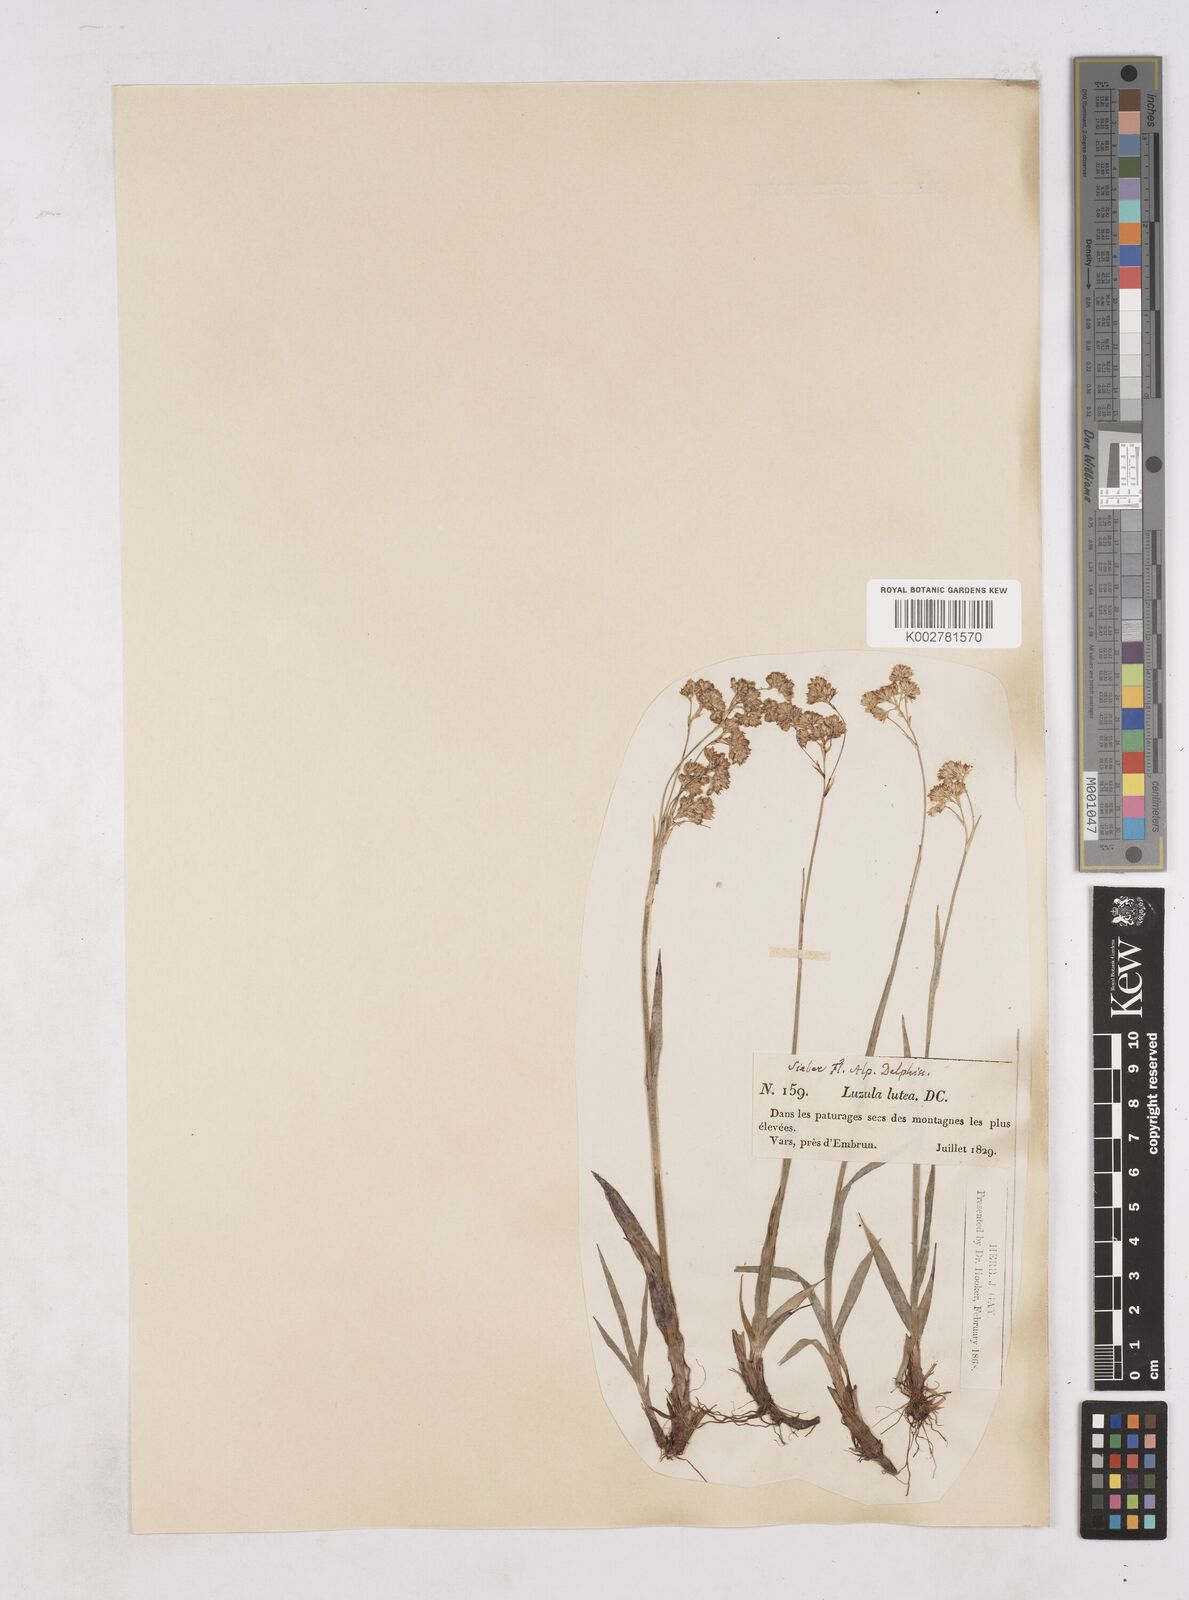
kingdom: Plantae
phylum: Tracheophyta
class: Liliopsida
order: Poales
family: Juncaceae
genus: Luzula
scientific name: Luzula lutea
